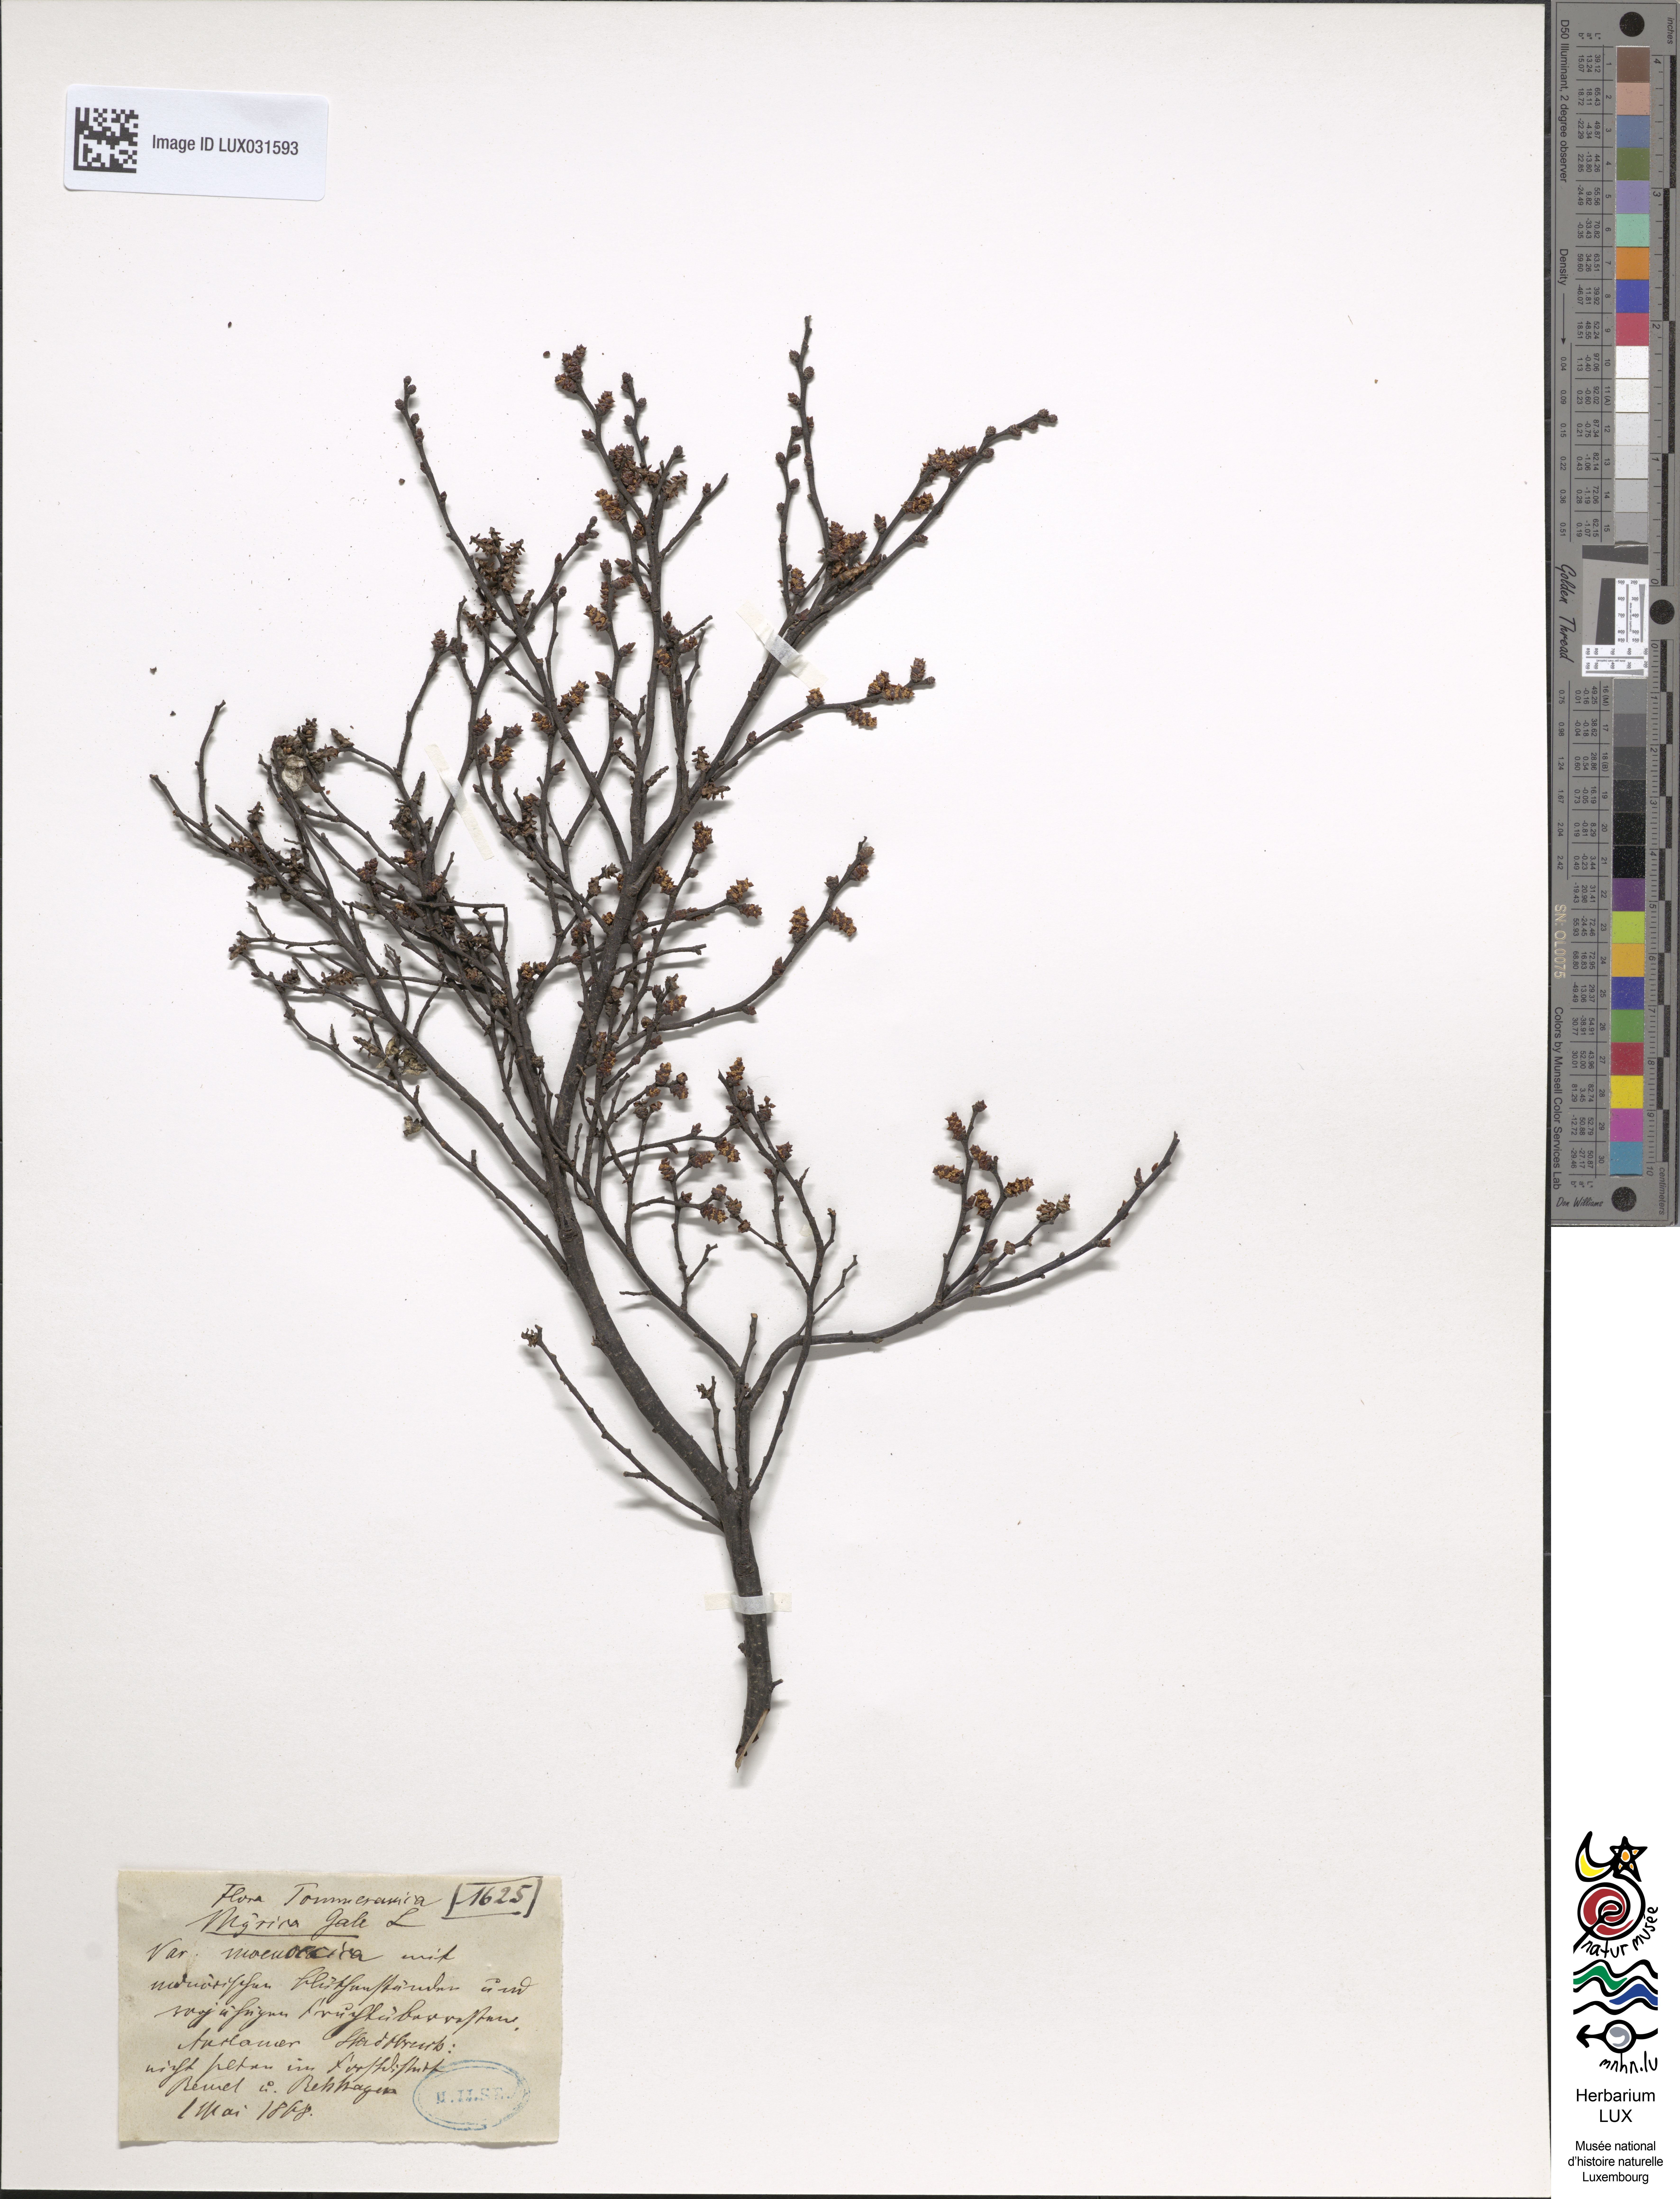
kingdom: Plantae
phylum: Tracheophyta
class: Magnoliopsida
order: Fagales
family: Myricaceae
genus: Myrica
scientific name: Myrica gale
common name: Sweet gale
